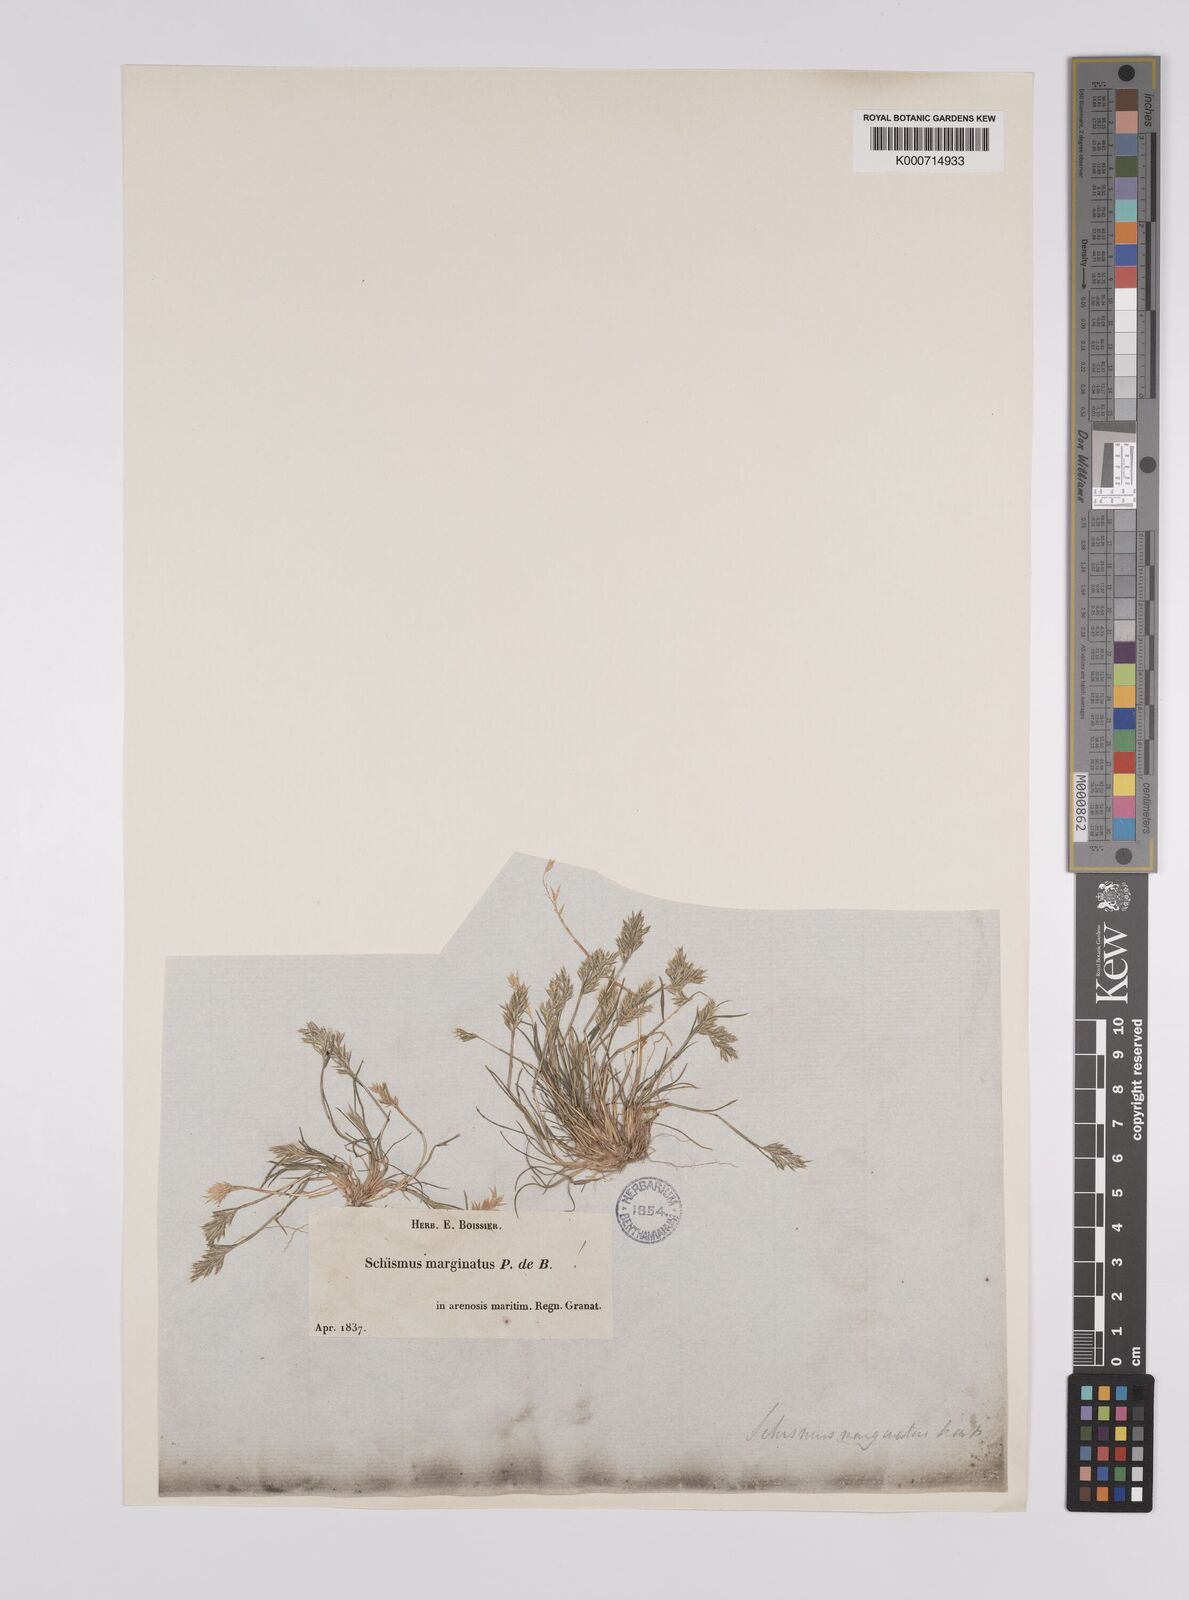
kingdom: Plantae
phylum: Tracheophyta
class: Liliopsida
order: Poales
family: Poaceae
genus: Schismus
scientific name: Schismus barbatus
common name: Kelch-grass
